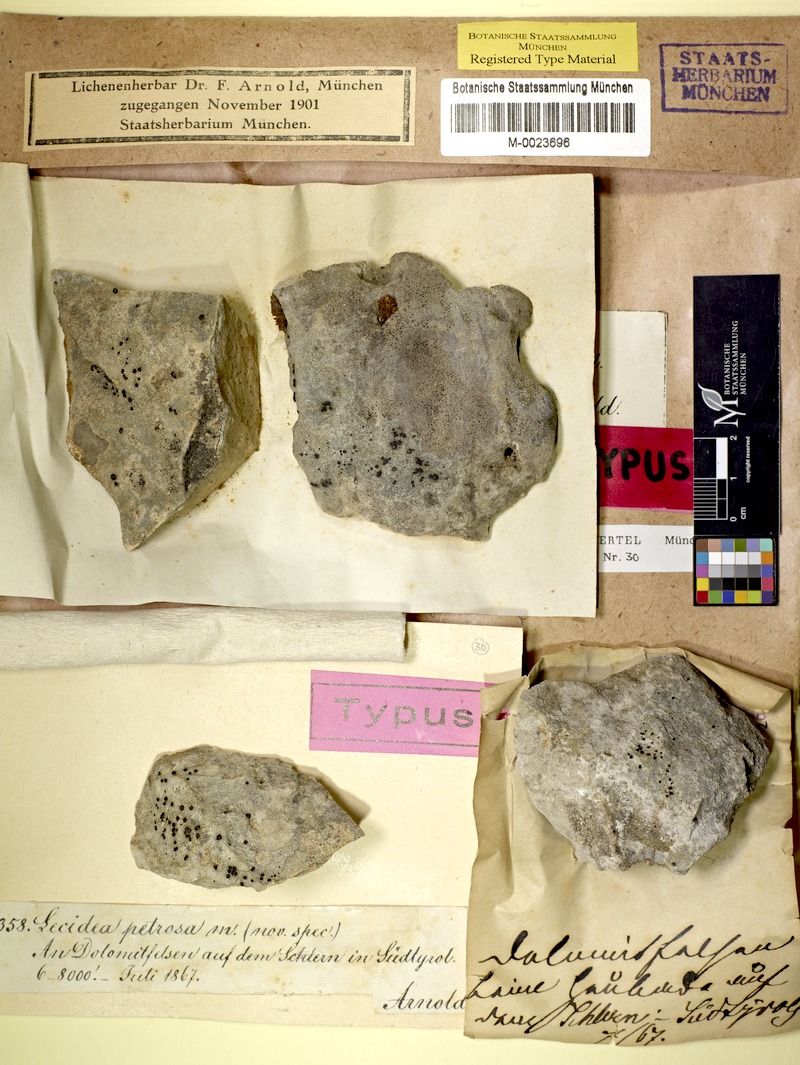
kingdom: Fungi
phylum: Ascomycota
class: Lecanoromycetes
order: Lecideales
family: Lecideaceae
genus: Farnoldia
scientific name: Farnoldia jurana
